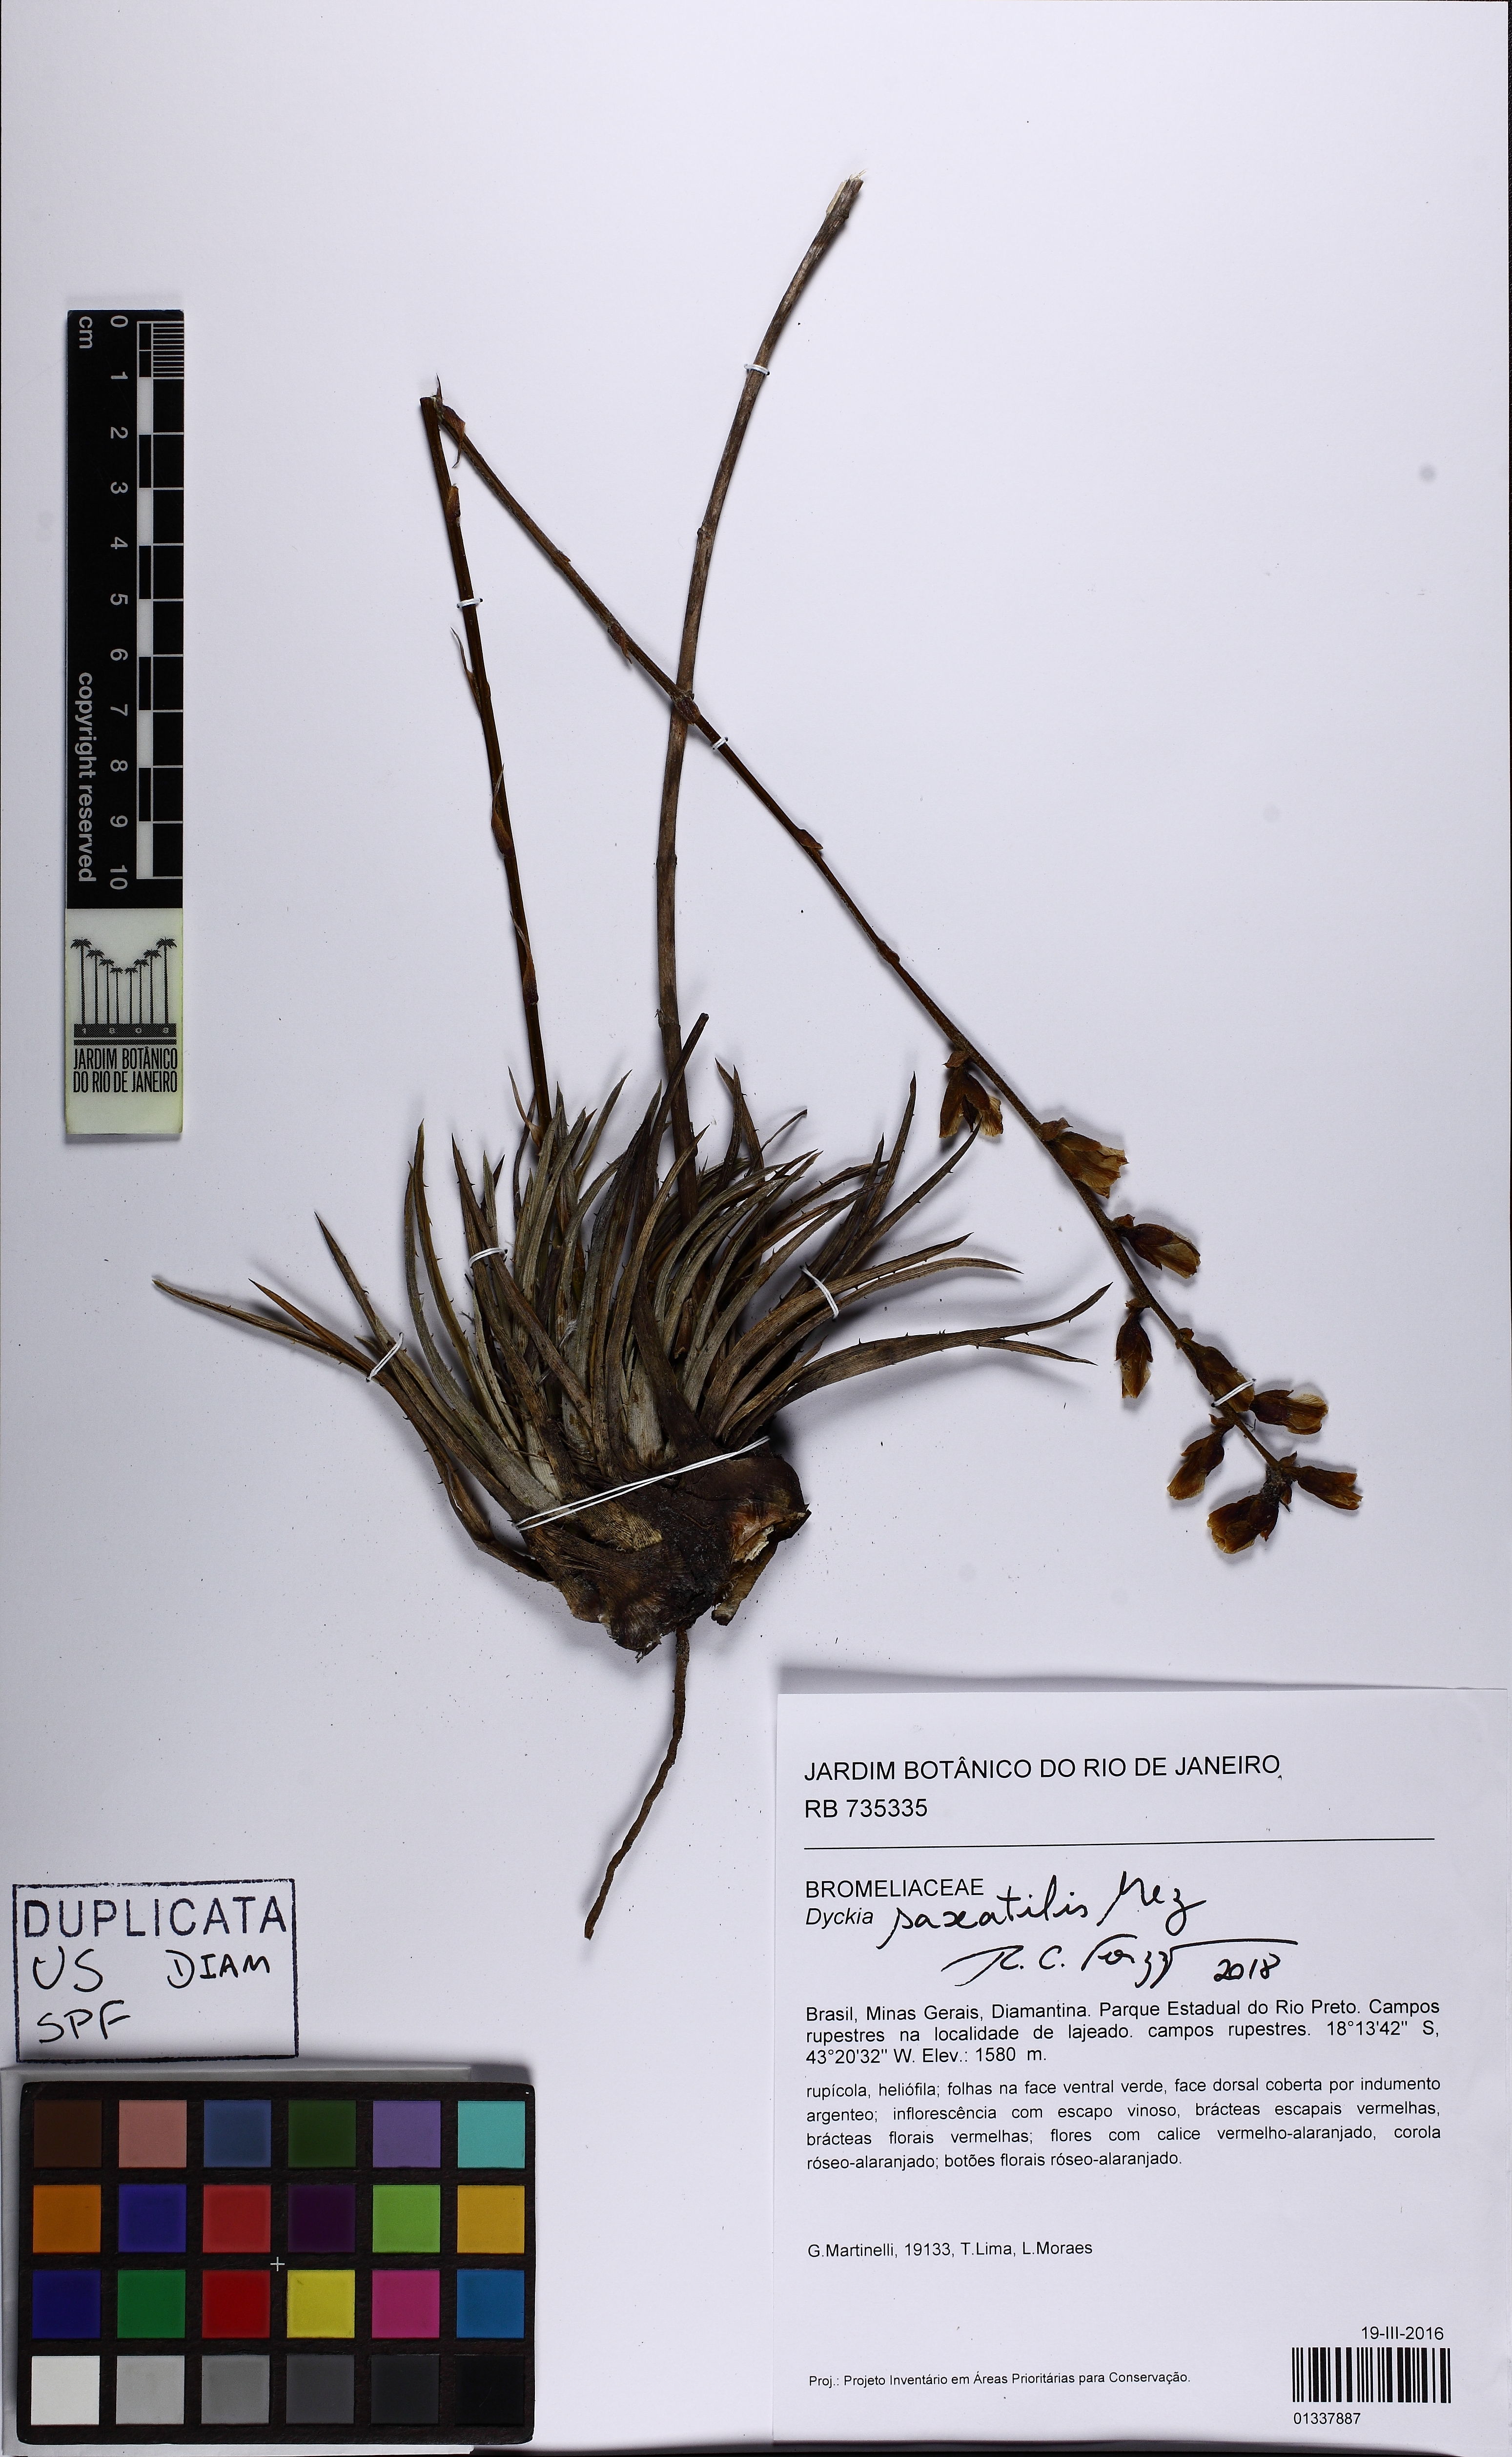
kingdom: Plantae
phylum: Tracheophyta
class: Liliopsida
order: Poales
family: Bromeliaceae
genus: Dyckia
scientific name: Dyckia saxatilis
